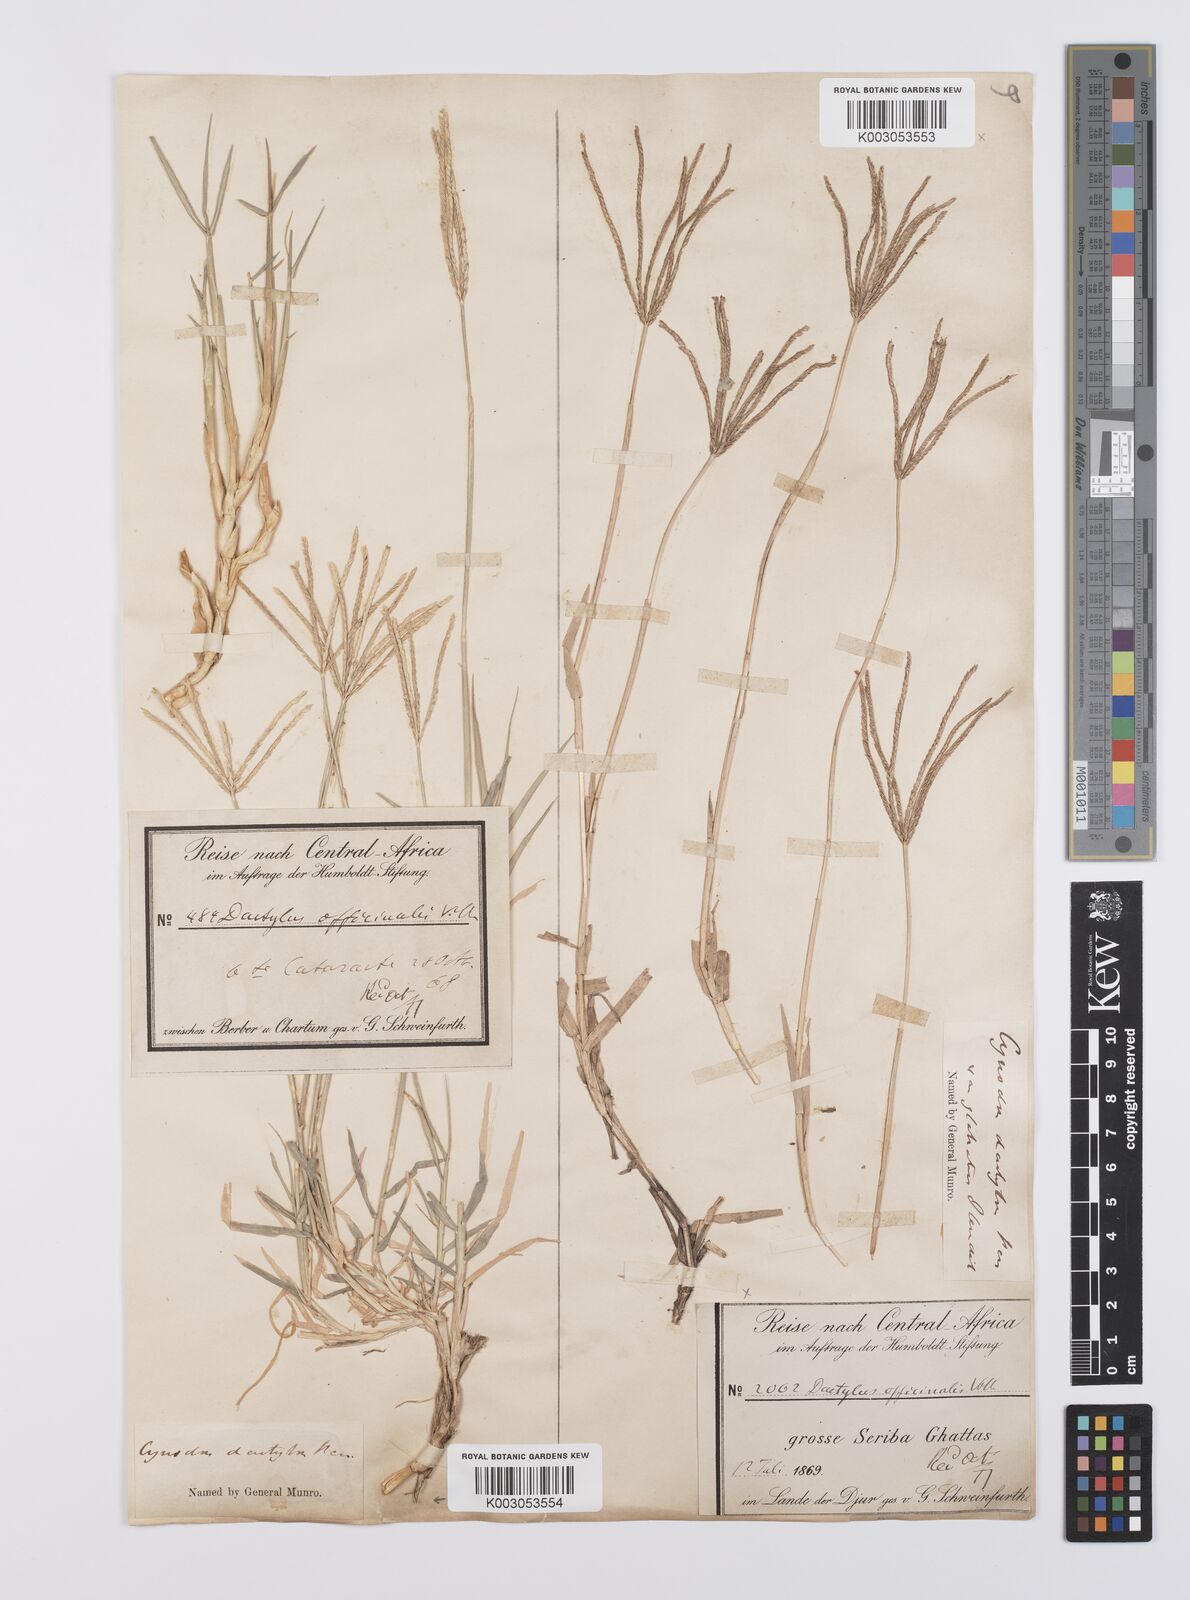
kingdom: Plantae
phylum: Tracheophyta
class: Liliopsida
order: Poales
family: Poaceae
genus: Cynodon
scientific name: Cynodon dactylon
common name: Bermuda grass
